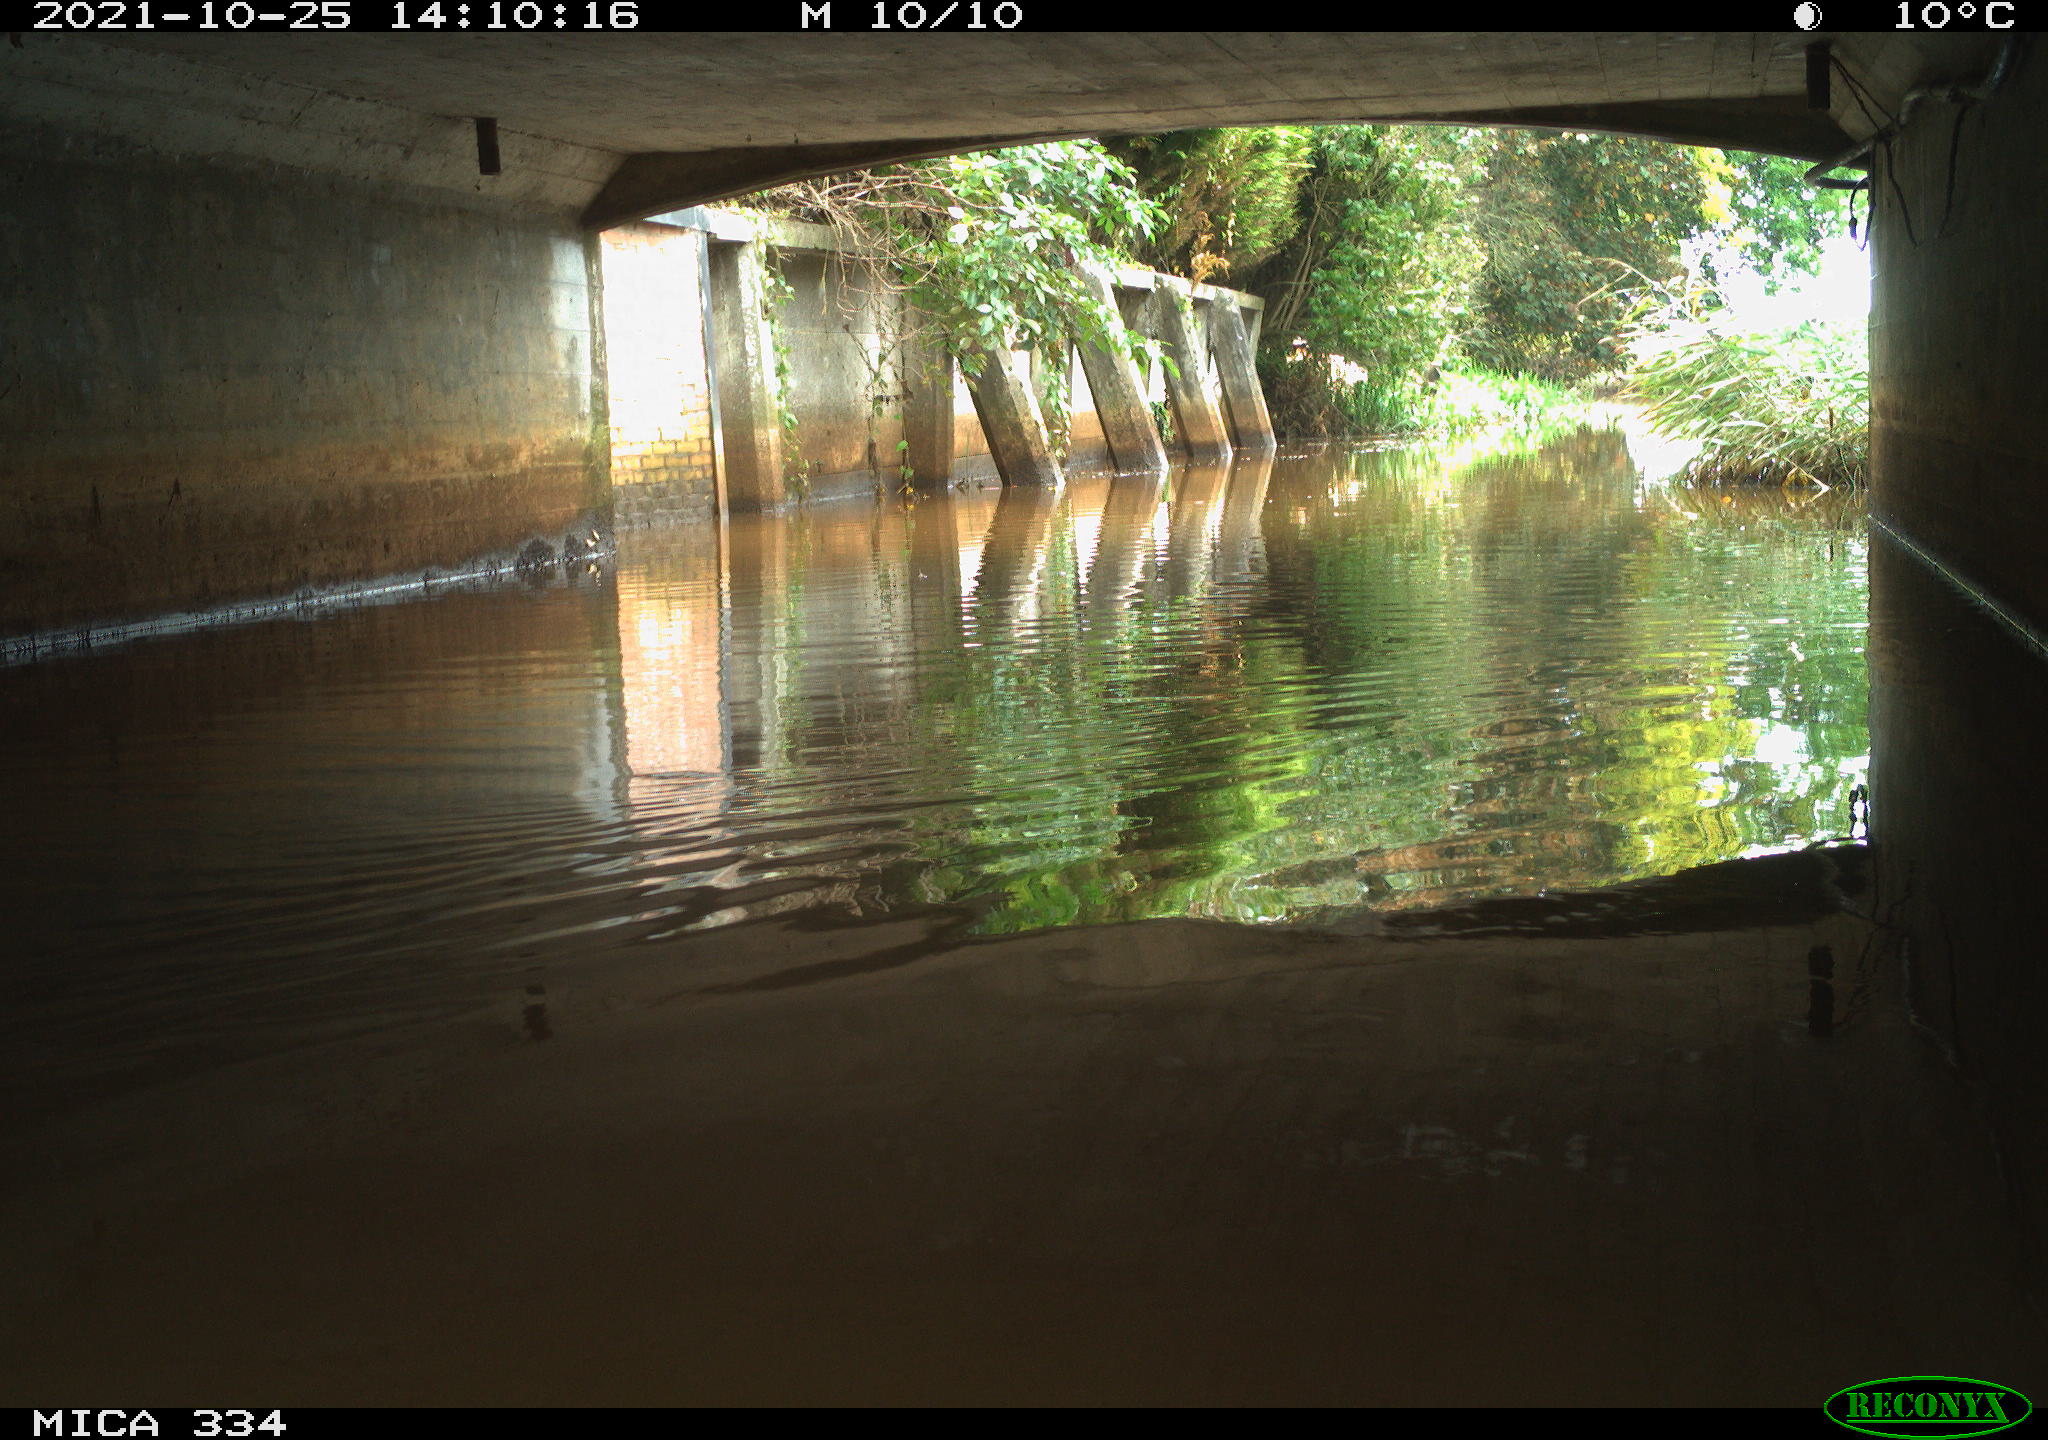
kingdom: Animalia
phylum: Chordata
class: Aves
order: Anseriformes
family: Anatidae
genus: Anas
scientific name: Anas platyrhynchos
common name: Mallard
